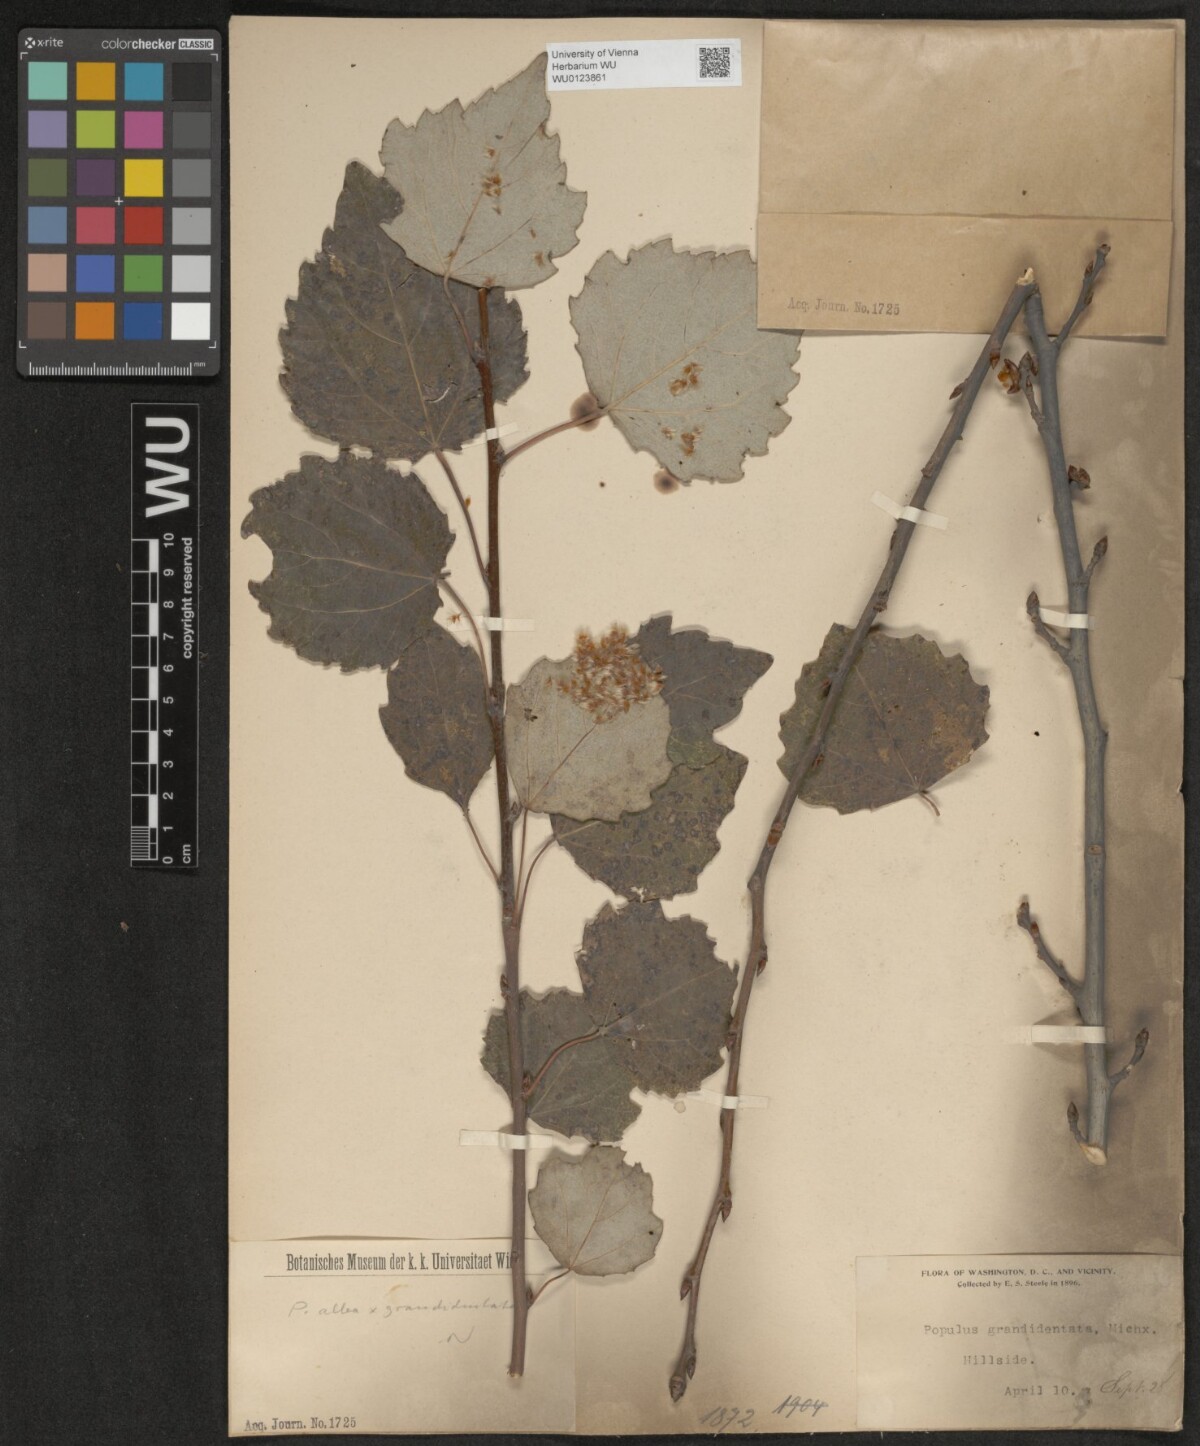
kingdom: Plantae
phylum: Tracheophyta
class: Magnoliopsida
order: Malpighiales
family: Salicaceae
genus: Populus
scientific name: Populus alba
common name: White poplar
